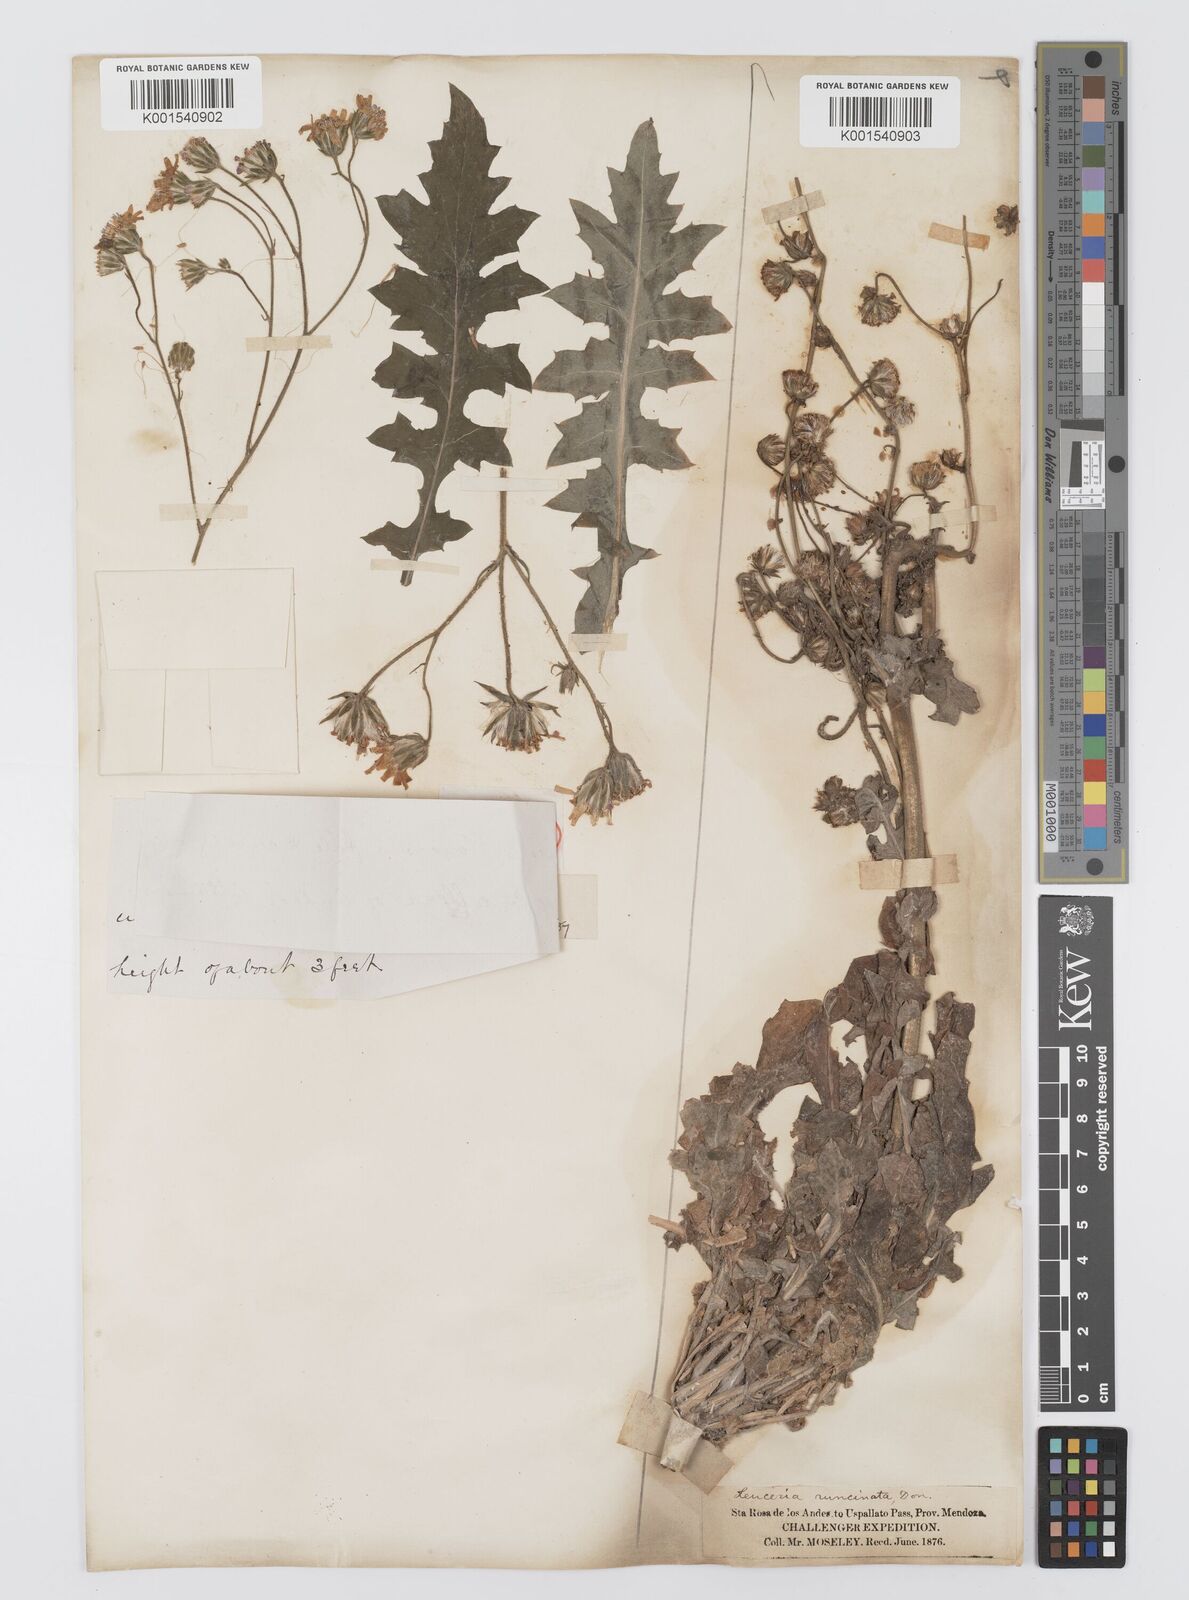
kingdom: Plantae
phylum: Tracheophyta
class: Magnoliopsida
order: Asterales
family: Asteraceae
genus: Leucheria
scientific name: Leucheria rosea
